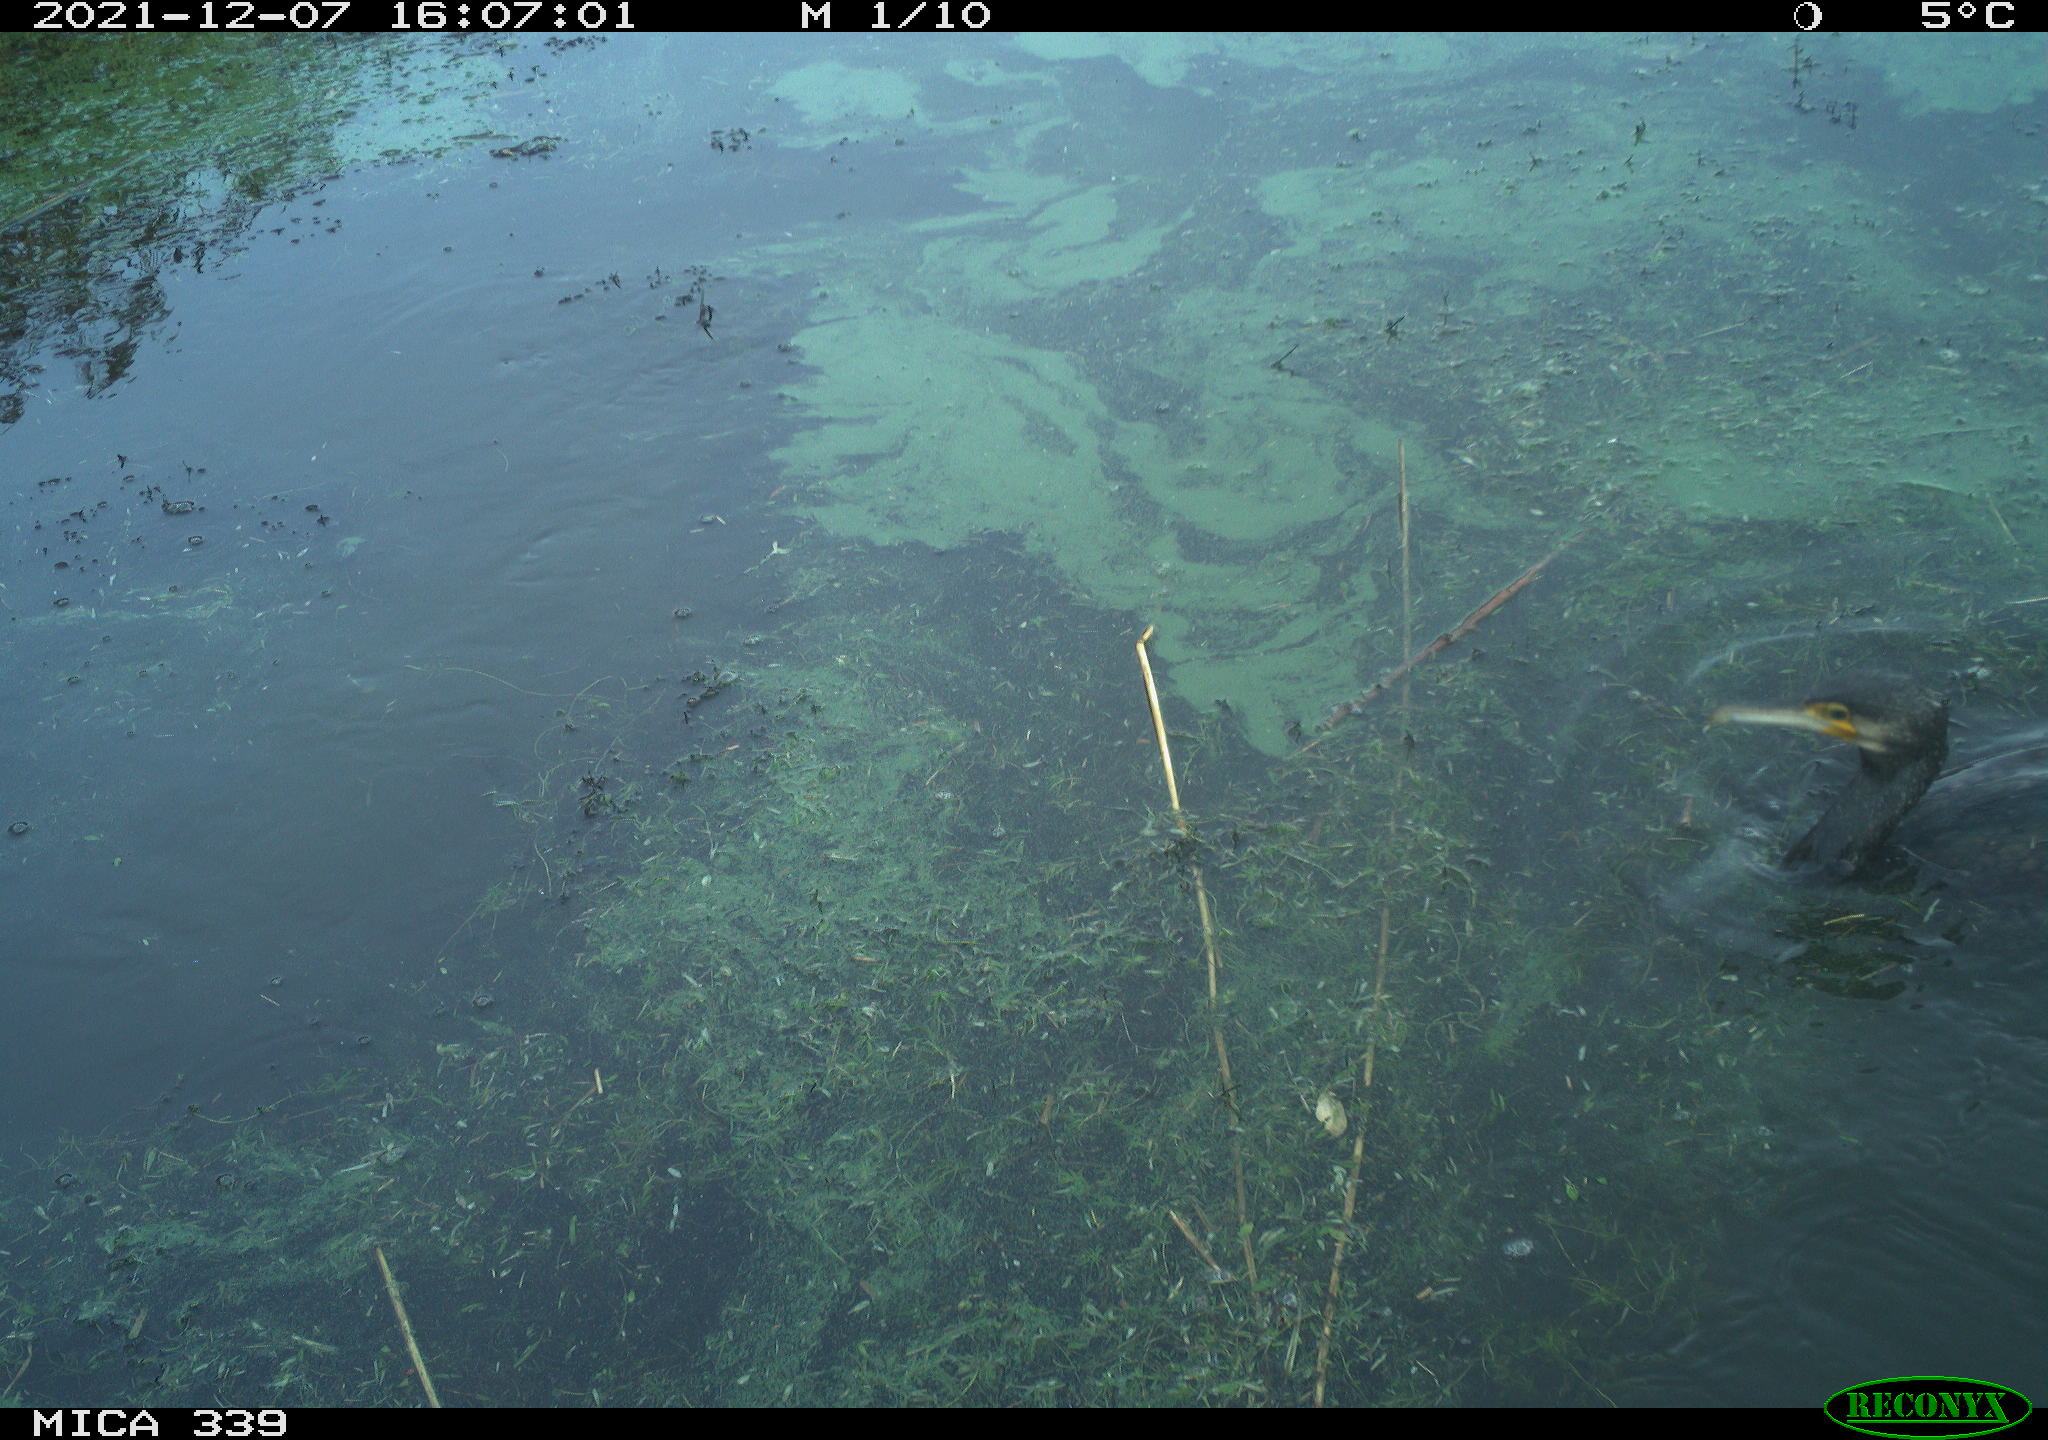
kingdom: Animalia
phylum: Chordata
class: Aves
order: Suliformes
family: Phalacrocoracidae
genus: Phalacrocorax
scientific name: Phalacrocorax carbo
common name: Great cormorant
